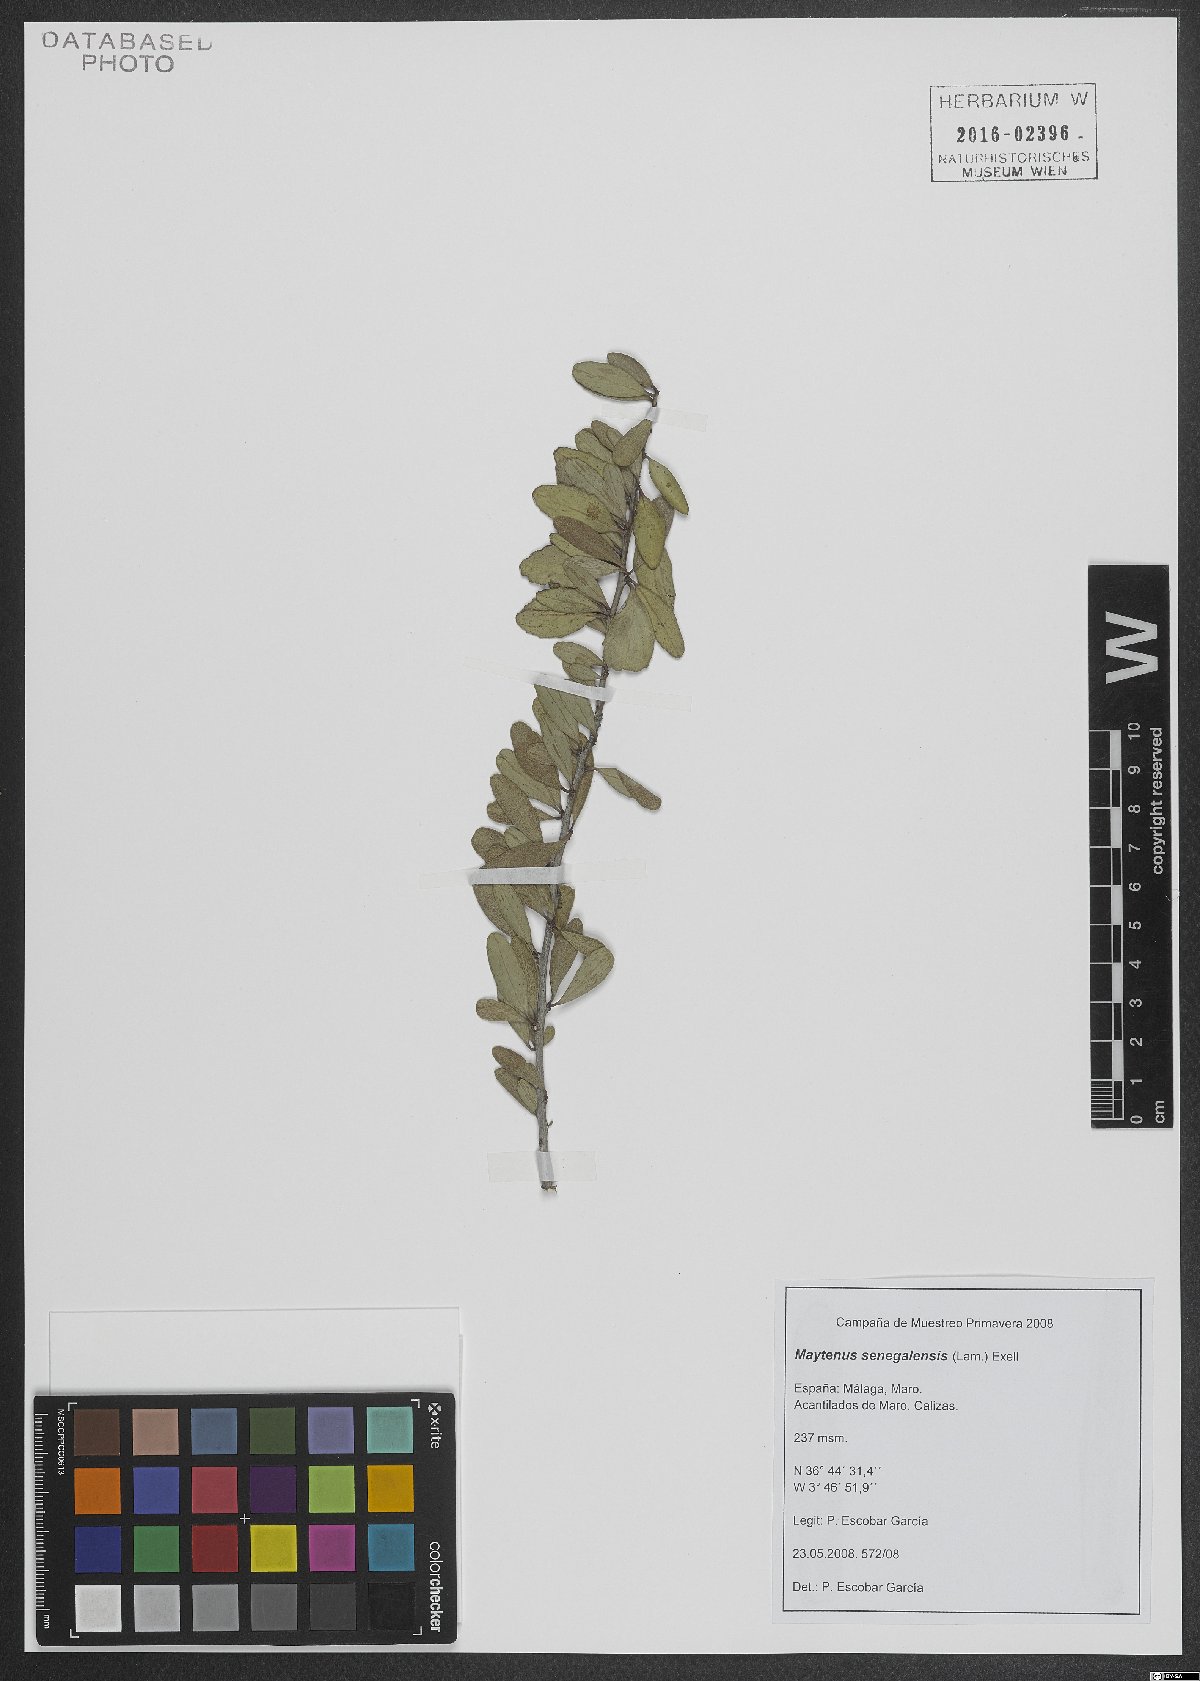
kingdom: Plantae
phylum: Tracheophyta
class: Magnoliopsida
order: Celastrales
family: Celastraceae
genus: Gymnosporia
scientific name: Gymnosporia senegalensis
